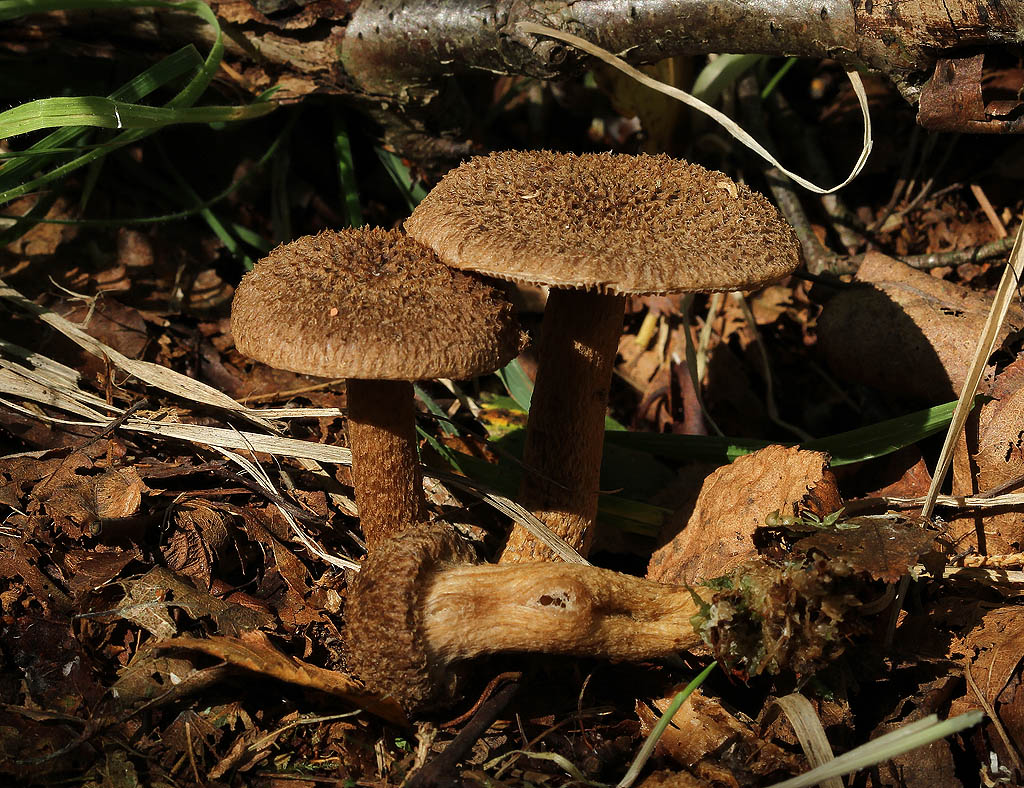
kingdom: Fungi
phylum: Basidiomycota
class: Agaricomycetes
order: Agaricales
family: Inocybaceae
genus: Inocybe
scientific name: Inocybe lanuginosa
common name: uldskællet trævlhat
